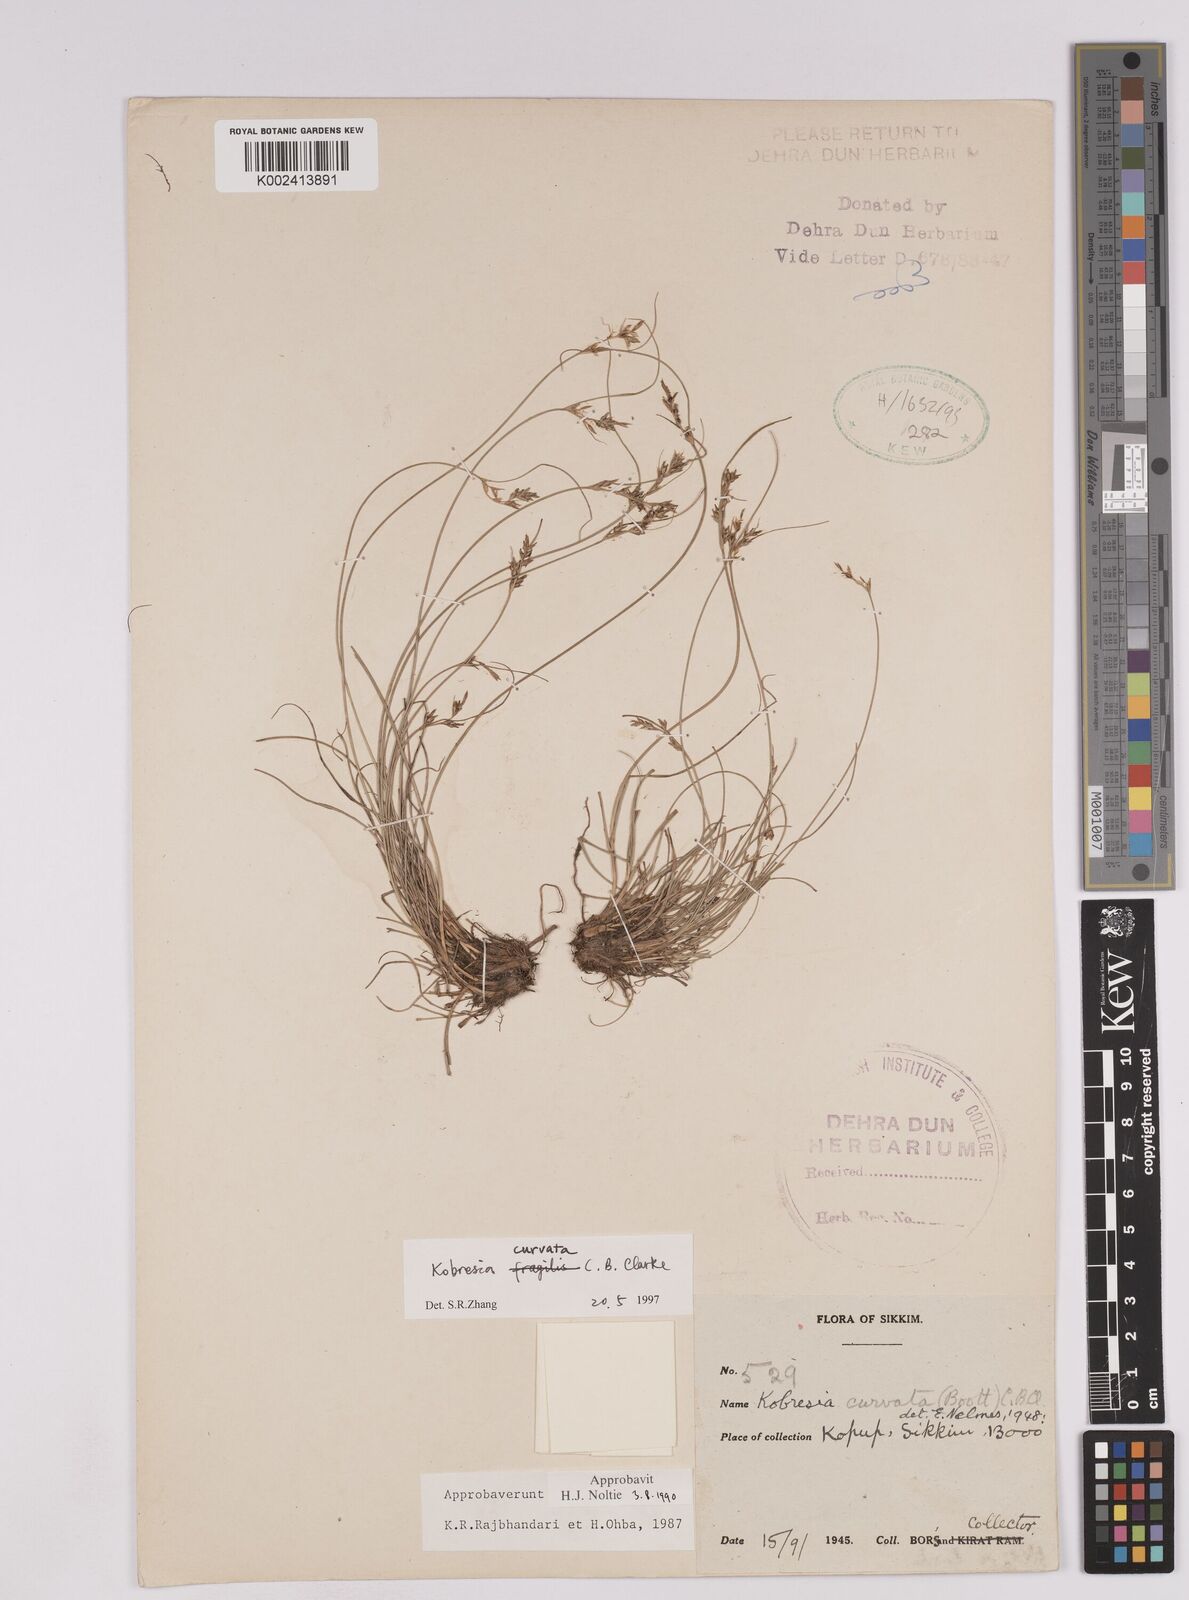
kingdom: Plantae
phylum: Tracheophyta
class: Liliopsida
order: Poales
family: Cyperaceae
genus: Carex
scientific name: Carex bonatiana
